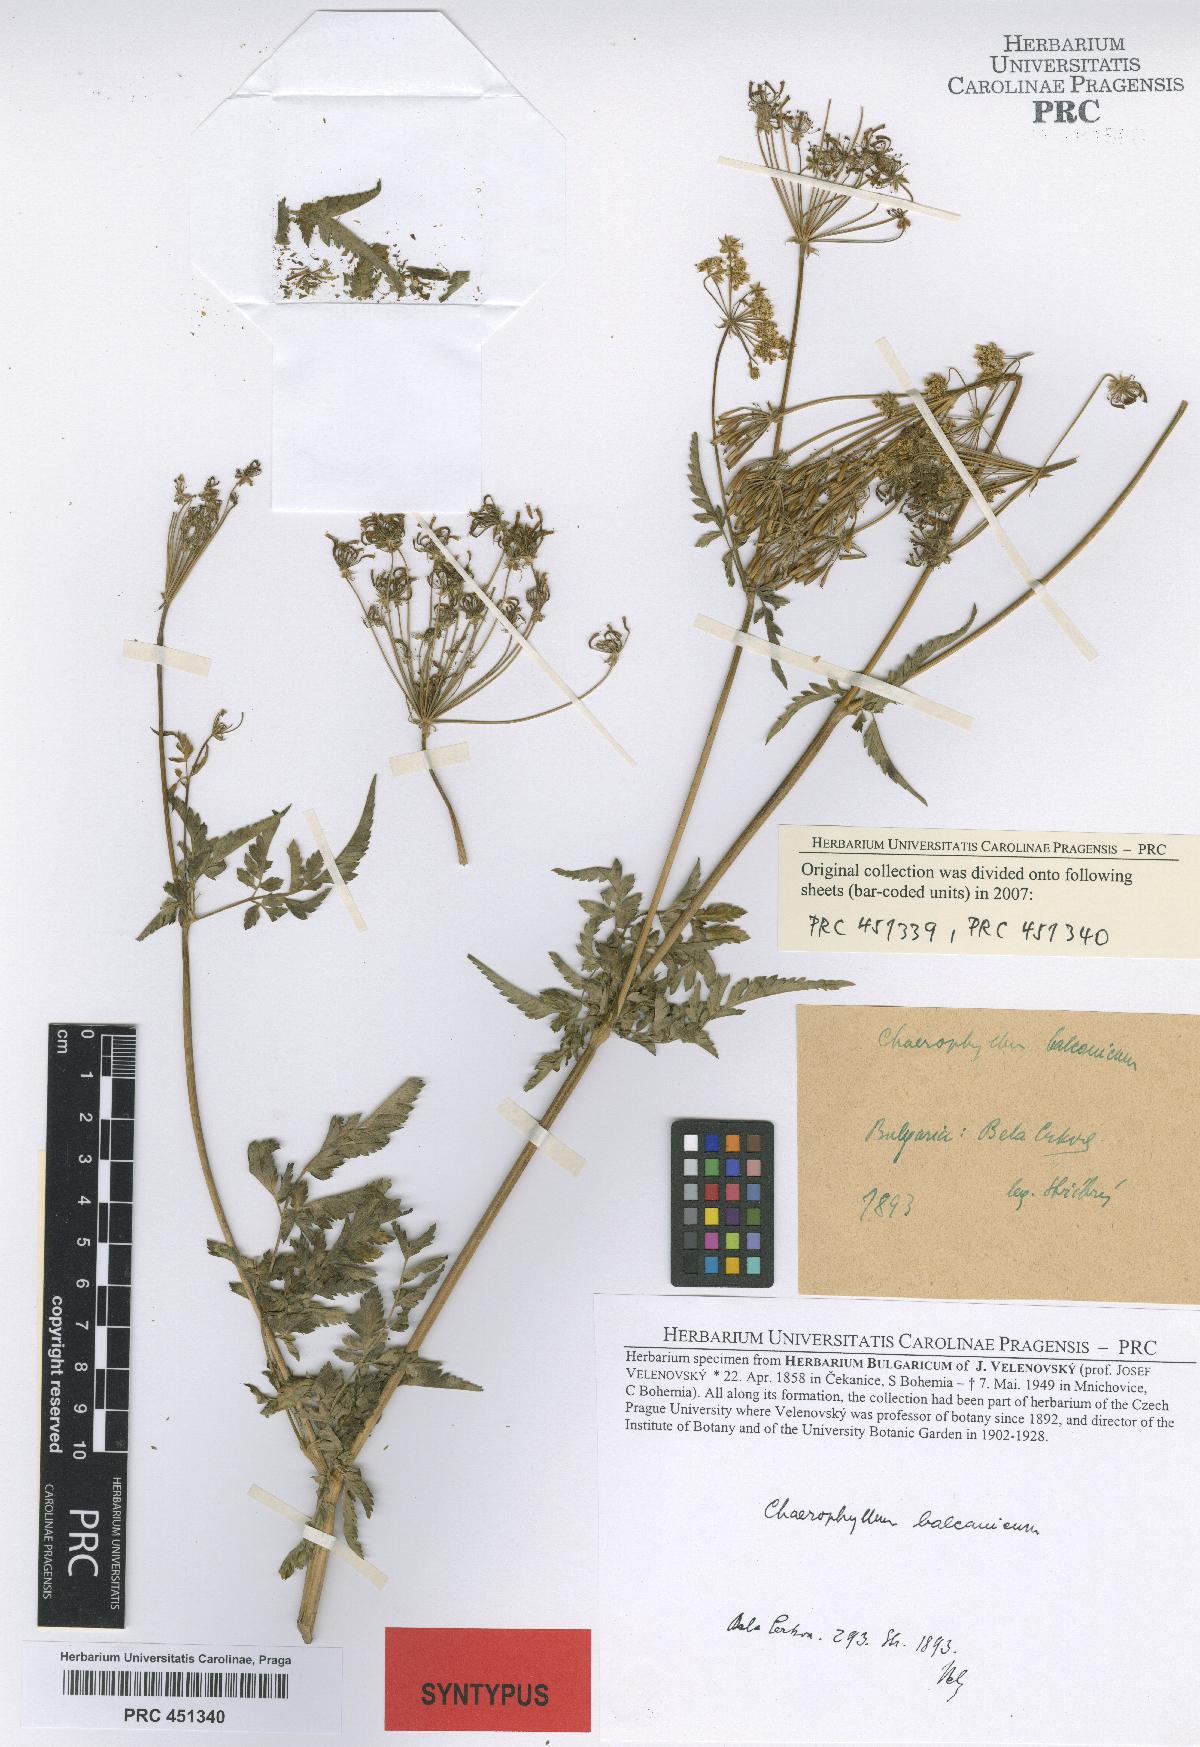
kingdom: Plantae
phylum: Tracheophyta
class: Magnoliopsida
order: Apiales
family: Apiaceae
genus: Geocaryum
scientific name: Geocaryum capillifolium
